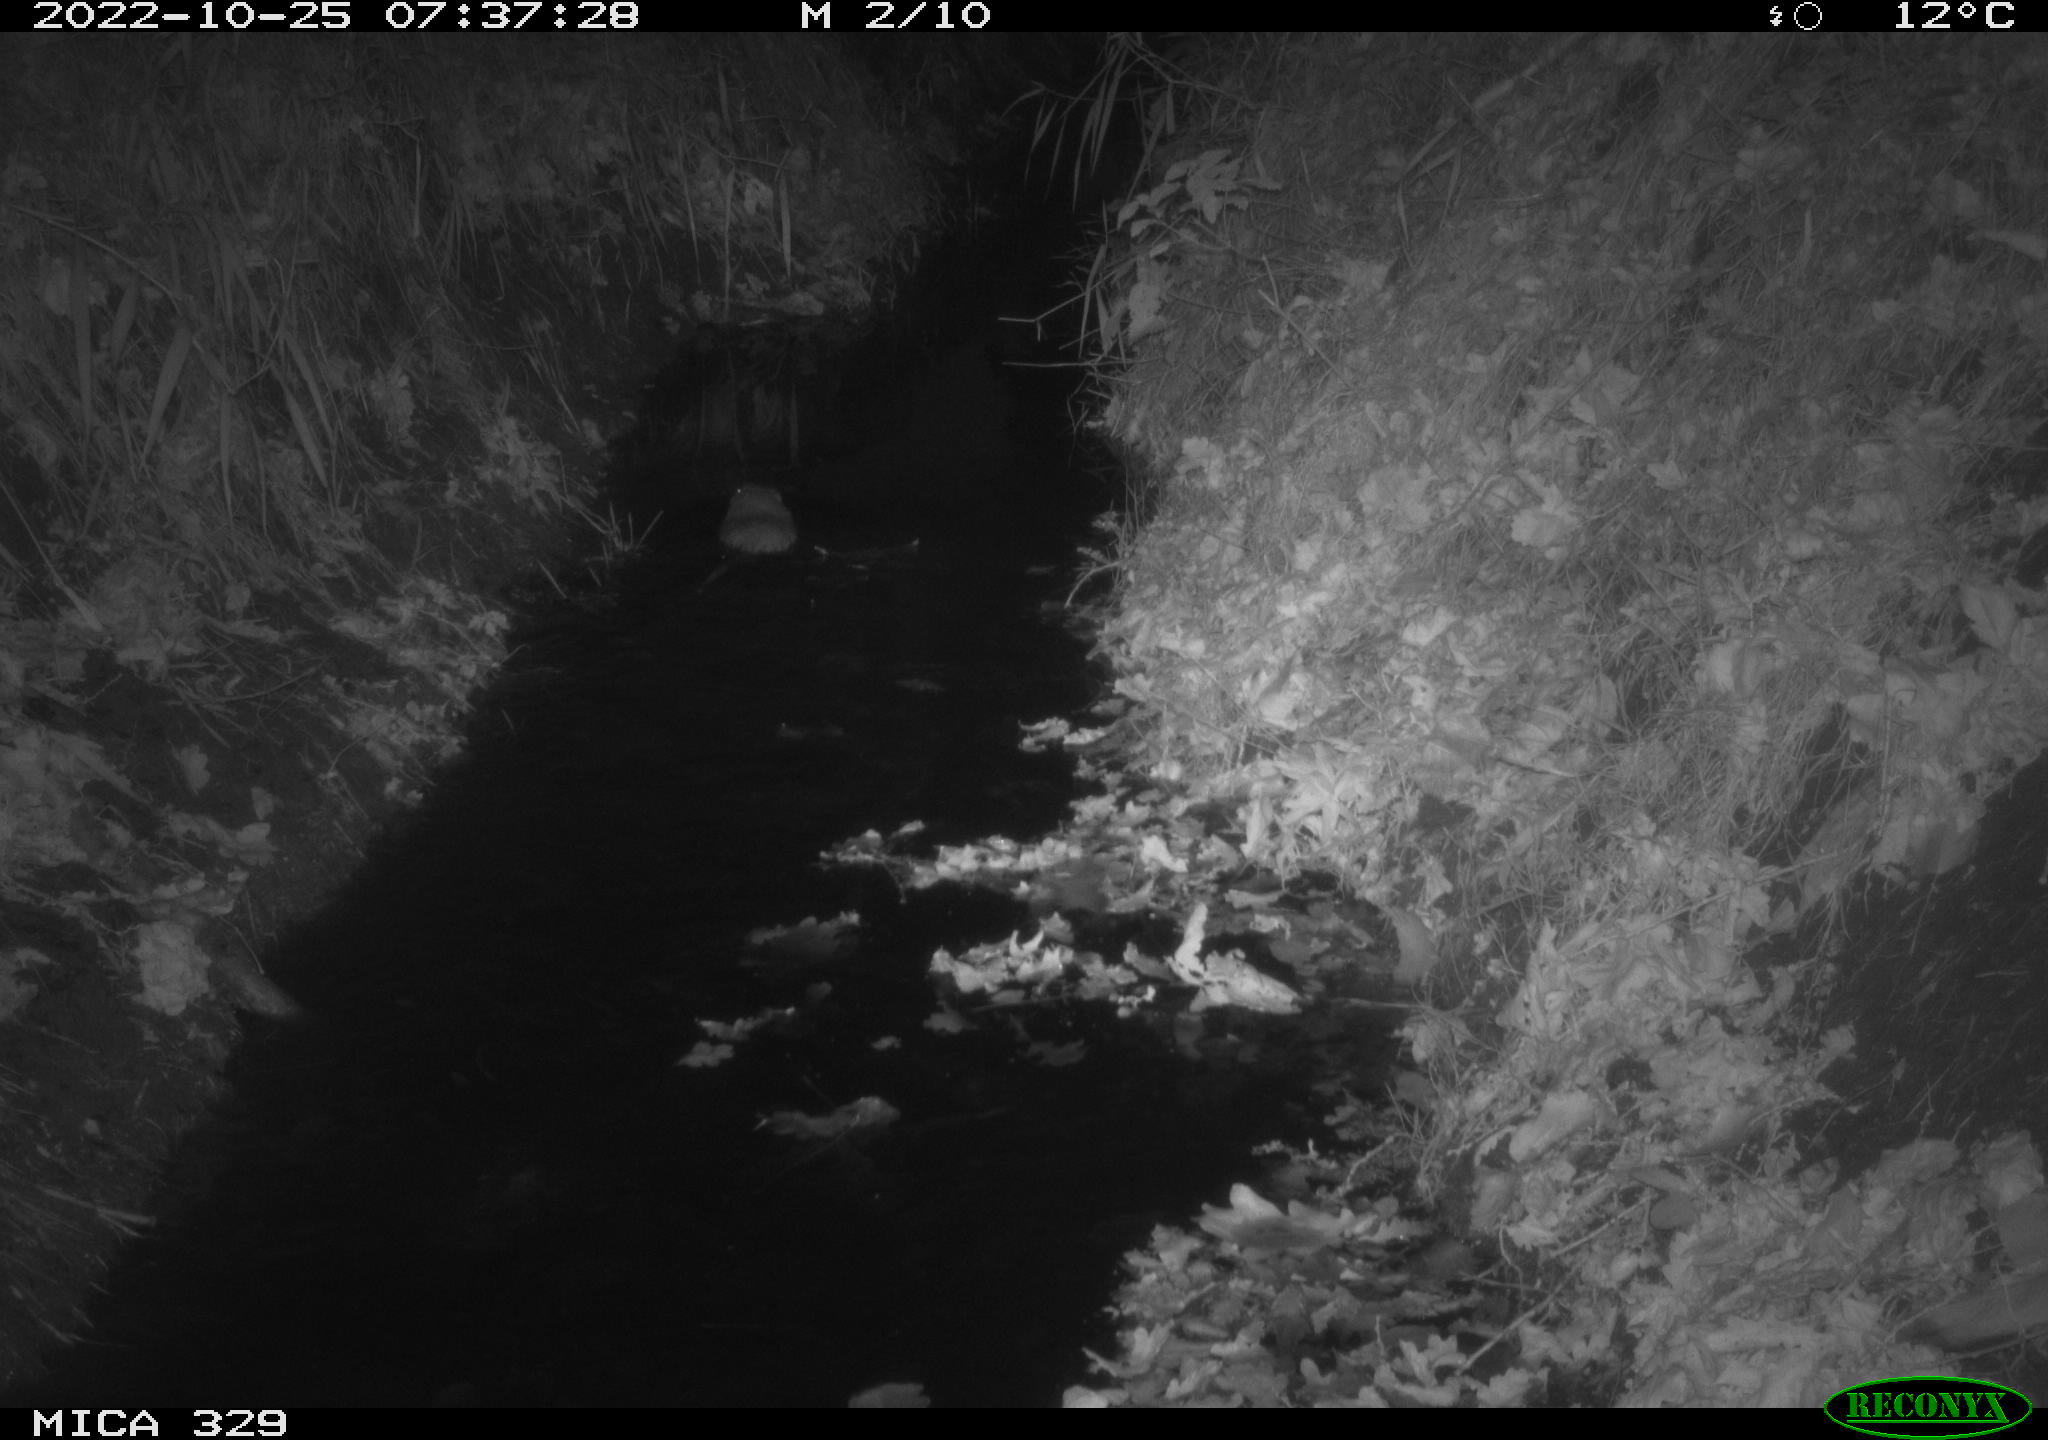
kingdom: Animalia
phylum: Chordata
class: Mammalia
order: Rodentia
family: Cricetidae
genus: Ondatra
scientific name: Ondatra zibethicus
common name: Muskrat
